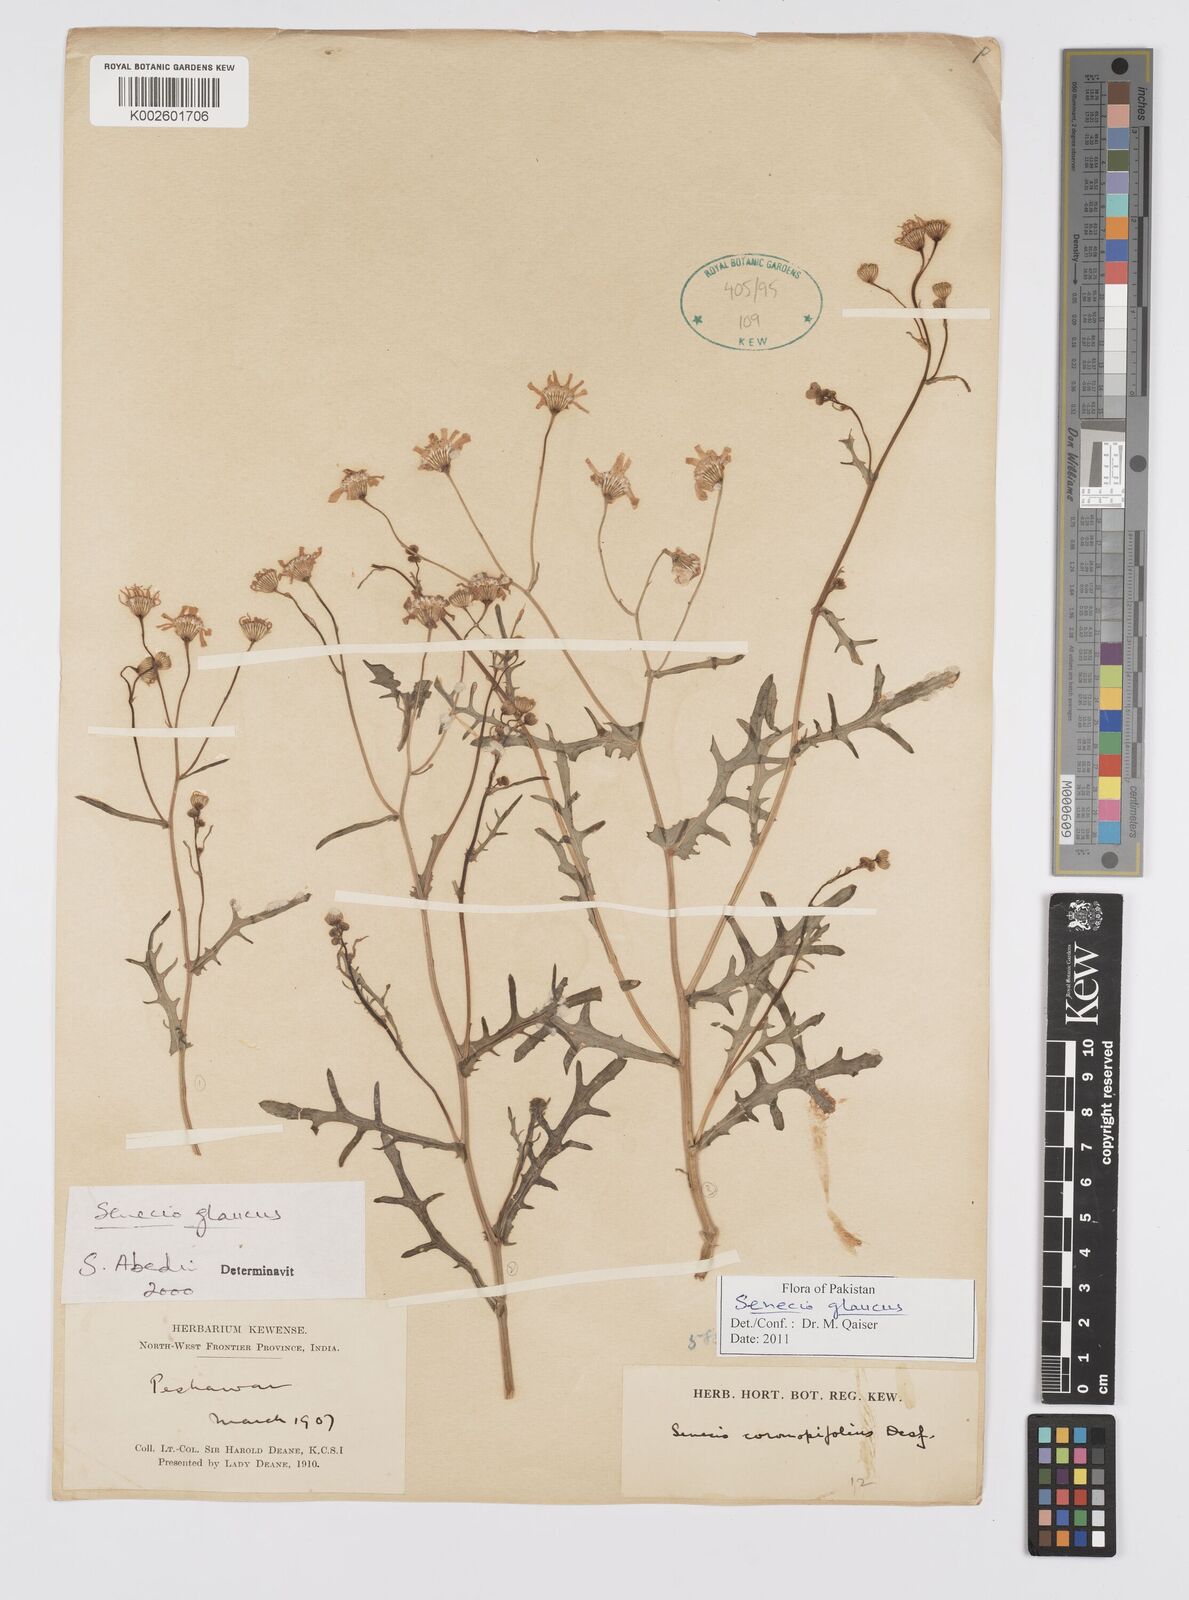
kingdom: Plantae
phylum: Tracheophyta
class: Magnoliopsida
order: Asterales
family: Asteraceae
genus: Senecio
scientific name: Senecio glaucus
